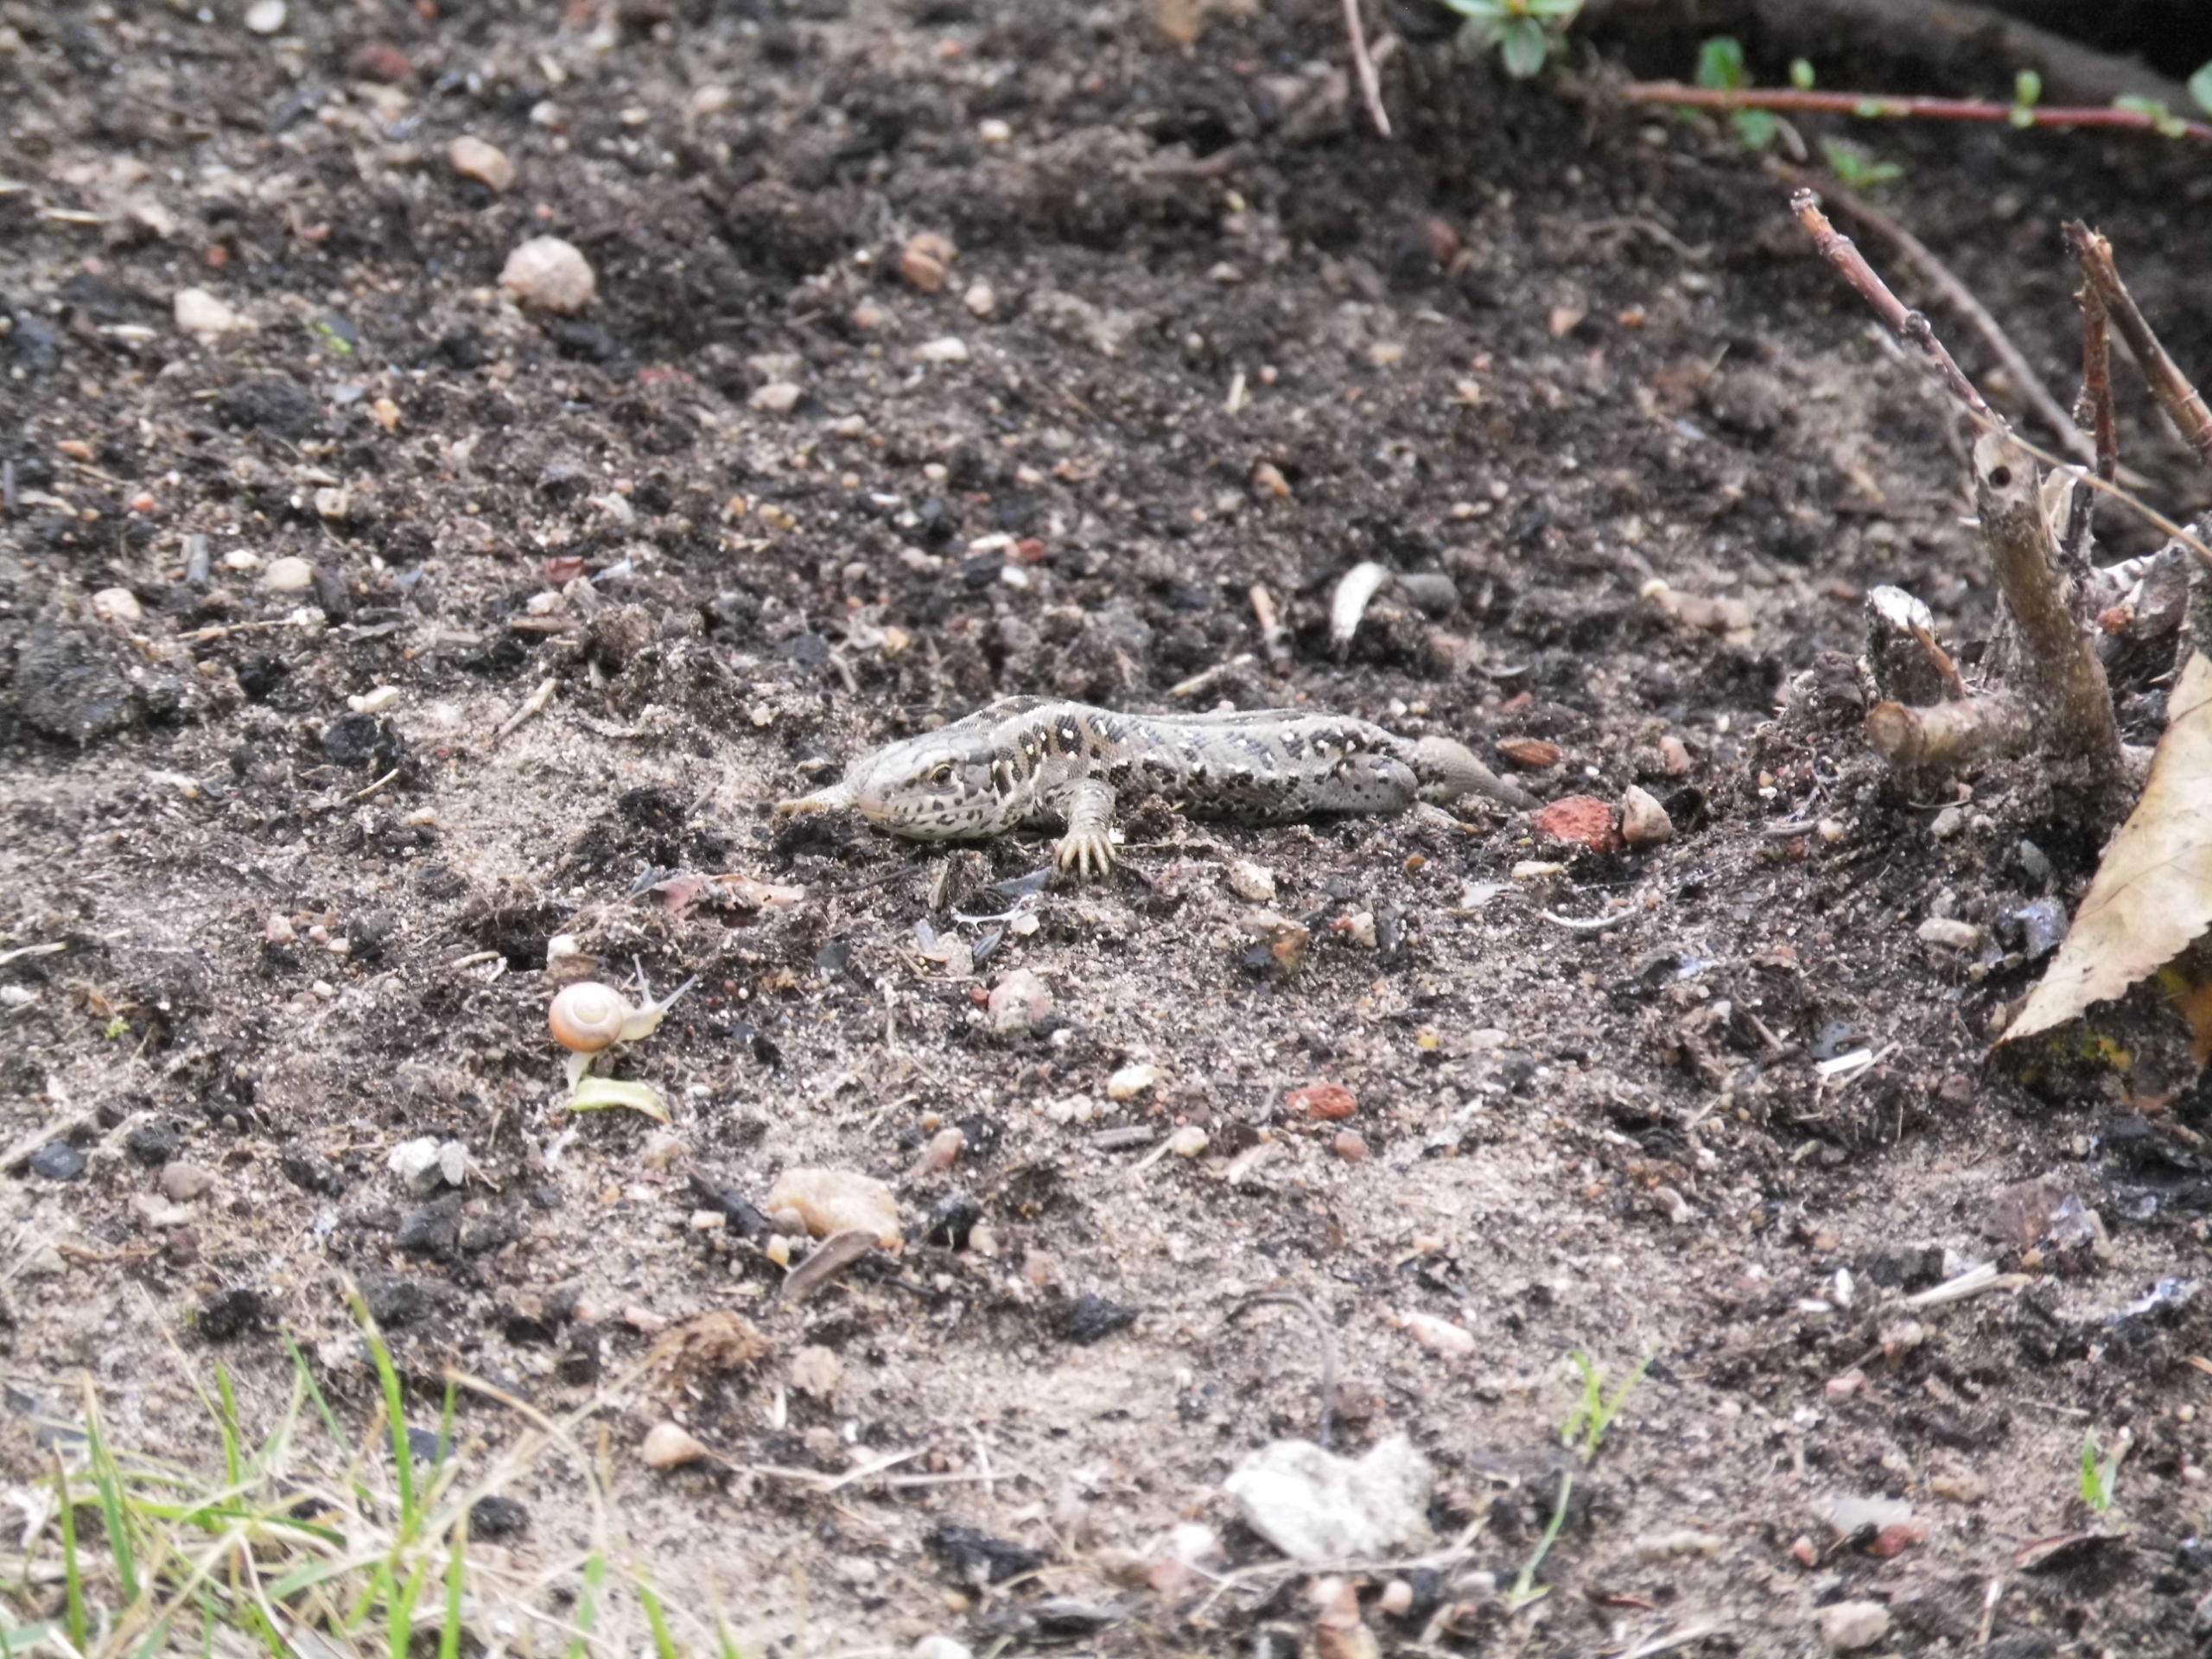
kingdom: Animalia
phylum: Chordata
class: Squamata
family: Lacertidae
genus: Lacerta
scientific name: Lacerta agilis
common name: Markfirben
